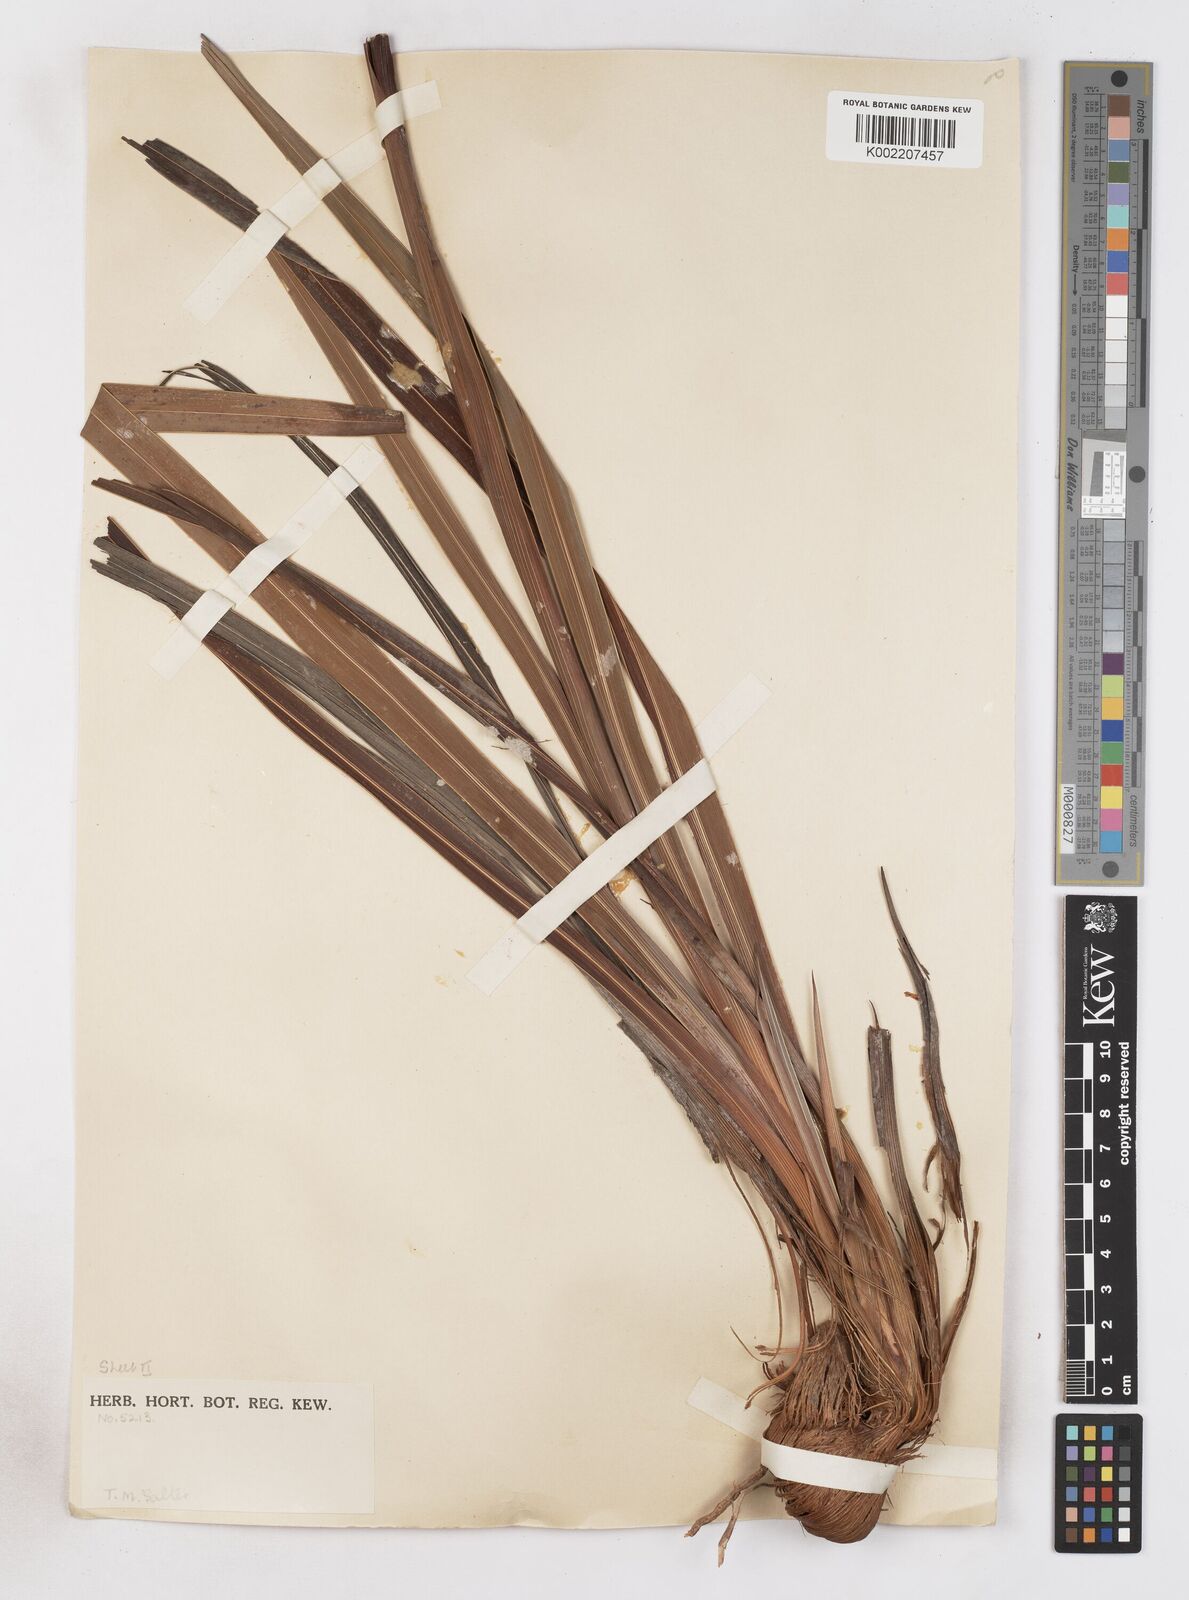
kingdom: Plantae
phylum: Tracheophyta
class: Liliopsida
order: Asparagales
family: Iridaceae
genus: Watsonia
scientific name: Watsonia schlechteri
